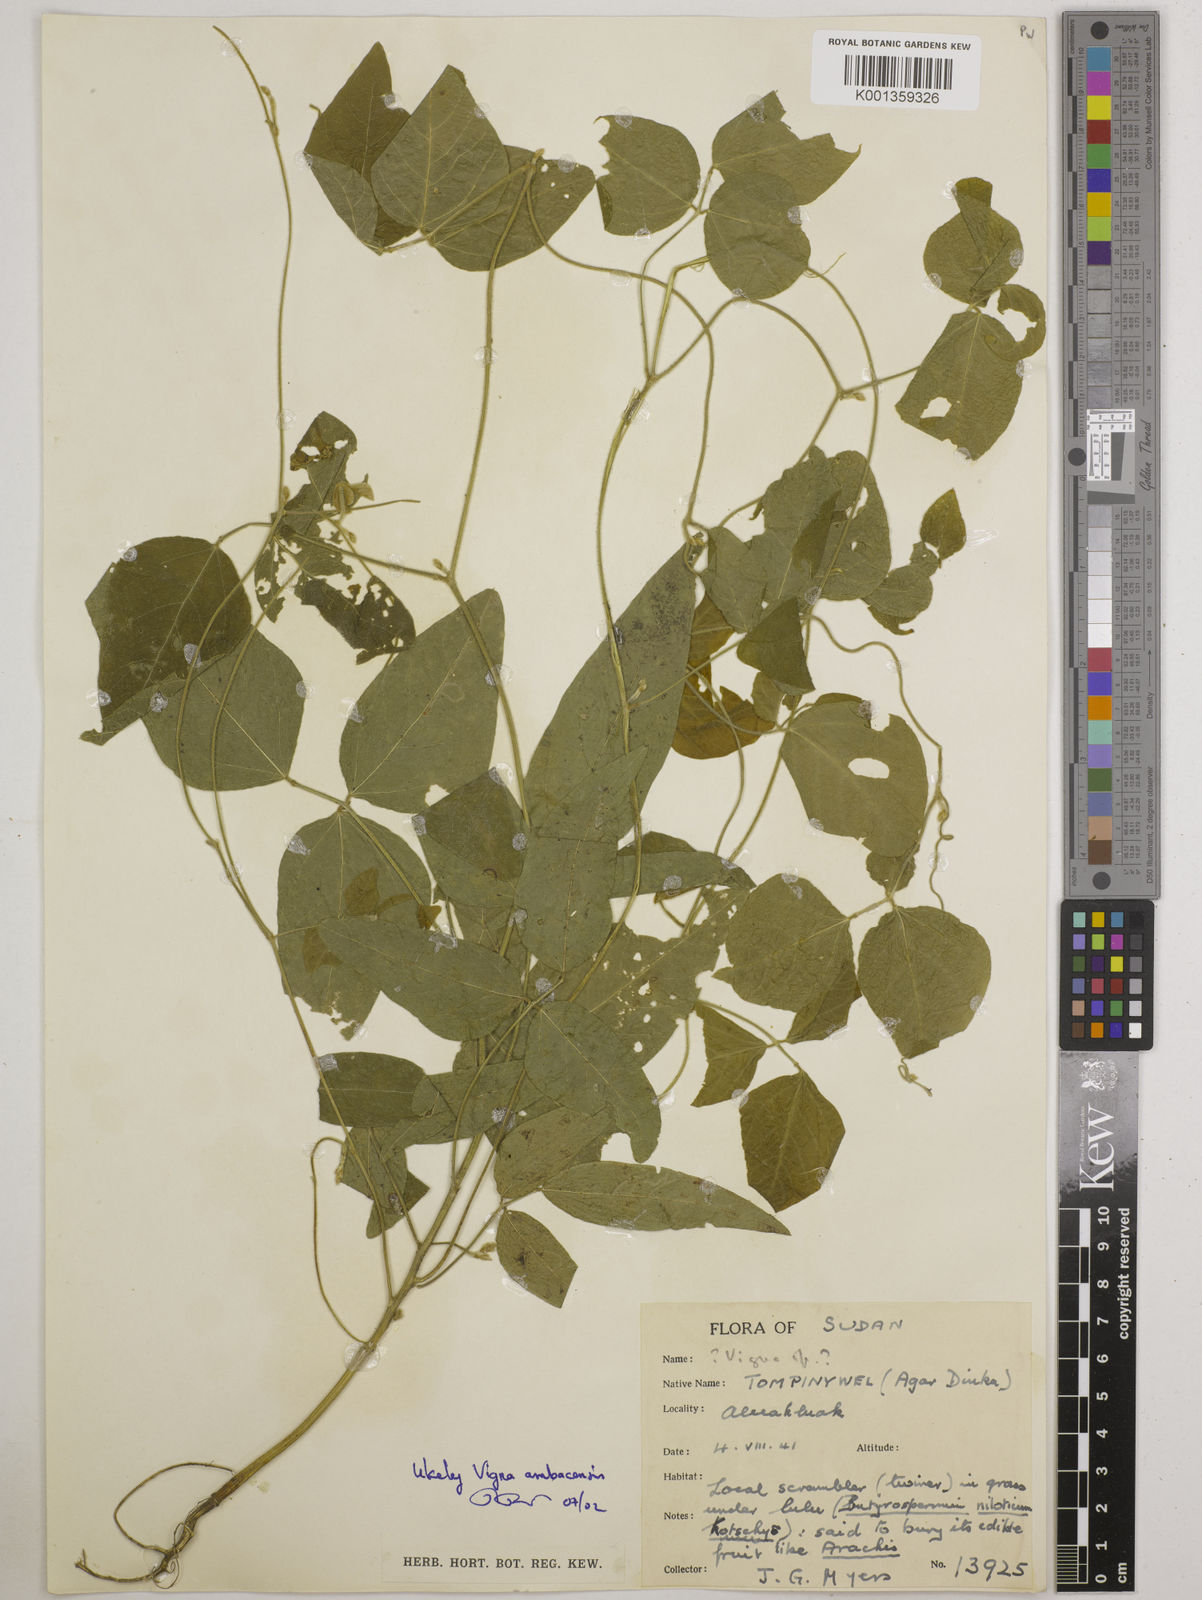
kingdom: Plantae
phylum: Tracheophyta
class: Magnoliopsida
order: Fabales
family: Fabaceae
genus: Vigna
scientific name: Vigna
